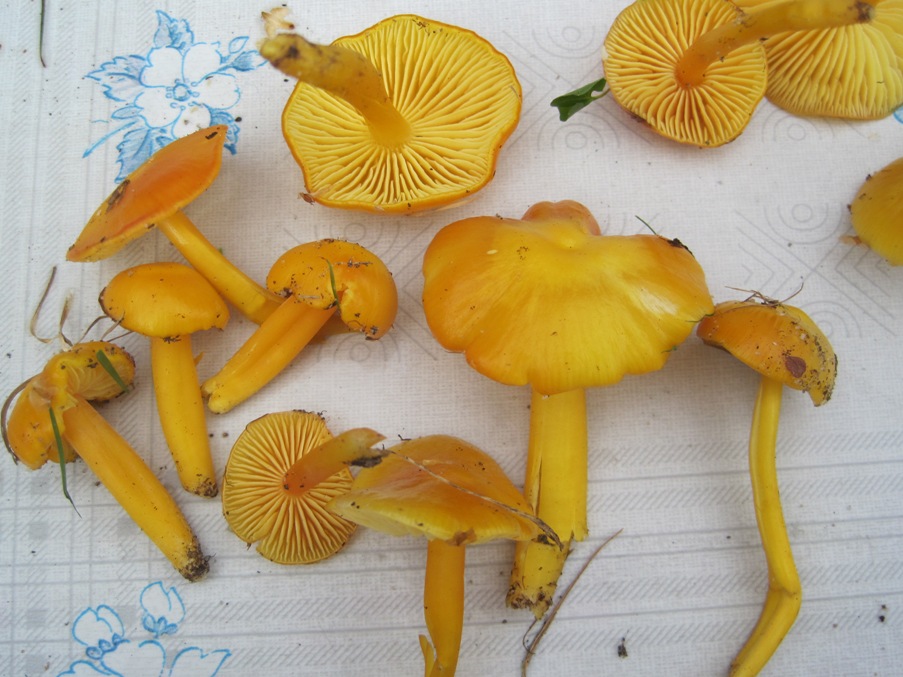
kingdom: Fungi
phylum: Basidiomycota
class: Agaricomycetes
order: Agaricales
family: Hygrophoraceae
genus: Hygrocybe
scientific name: Hygrocybe chlorophana
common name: gul vokshat
